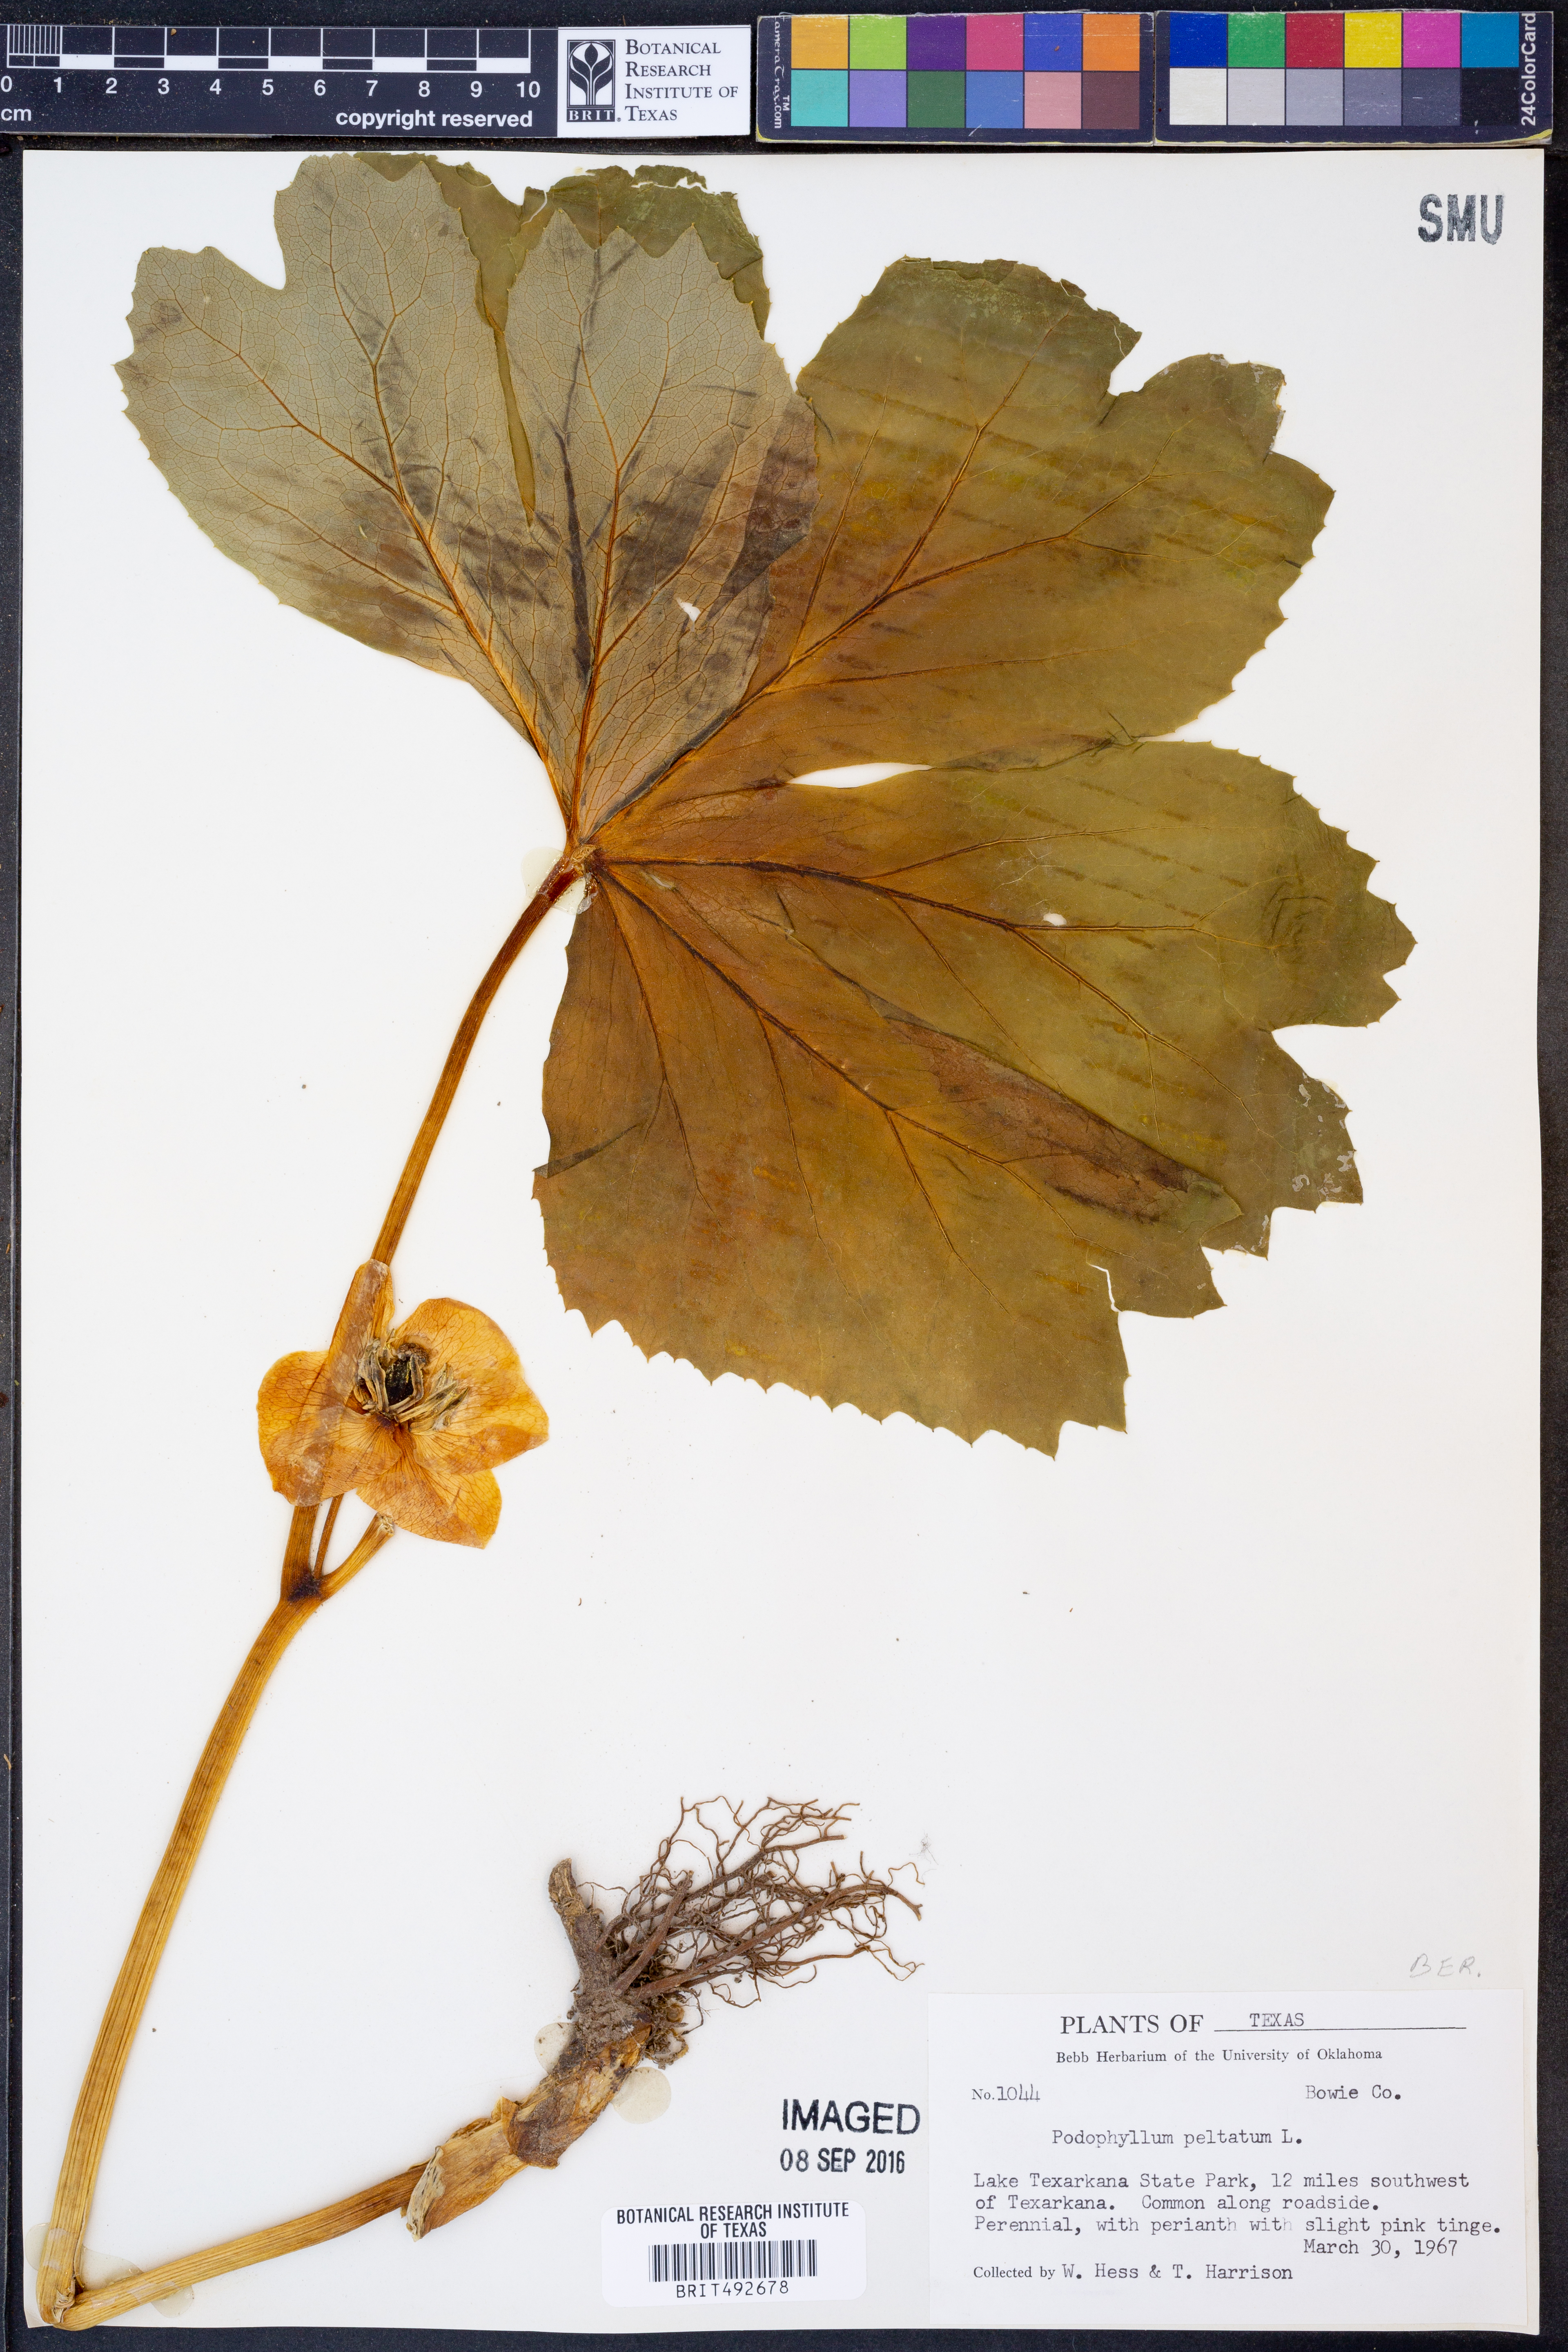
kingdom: Plantae
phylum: Tracheophyta
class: Magnoliopsida
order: Ranunculales
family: Berberidaceae
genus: Podophyllum
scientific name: Podophyllum peltatum
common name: Wild mandrake
